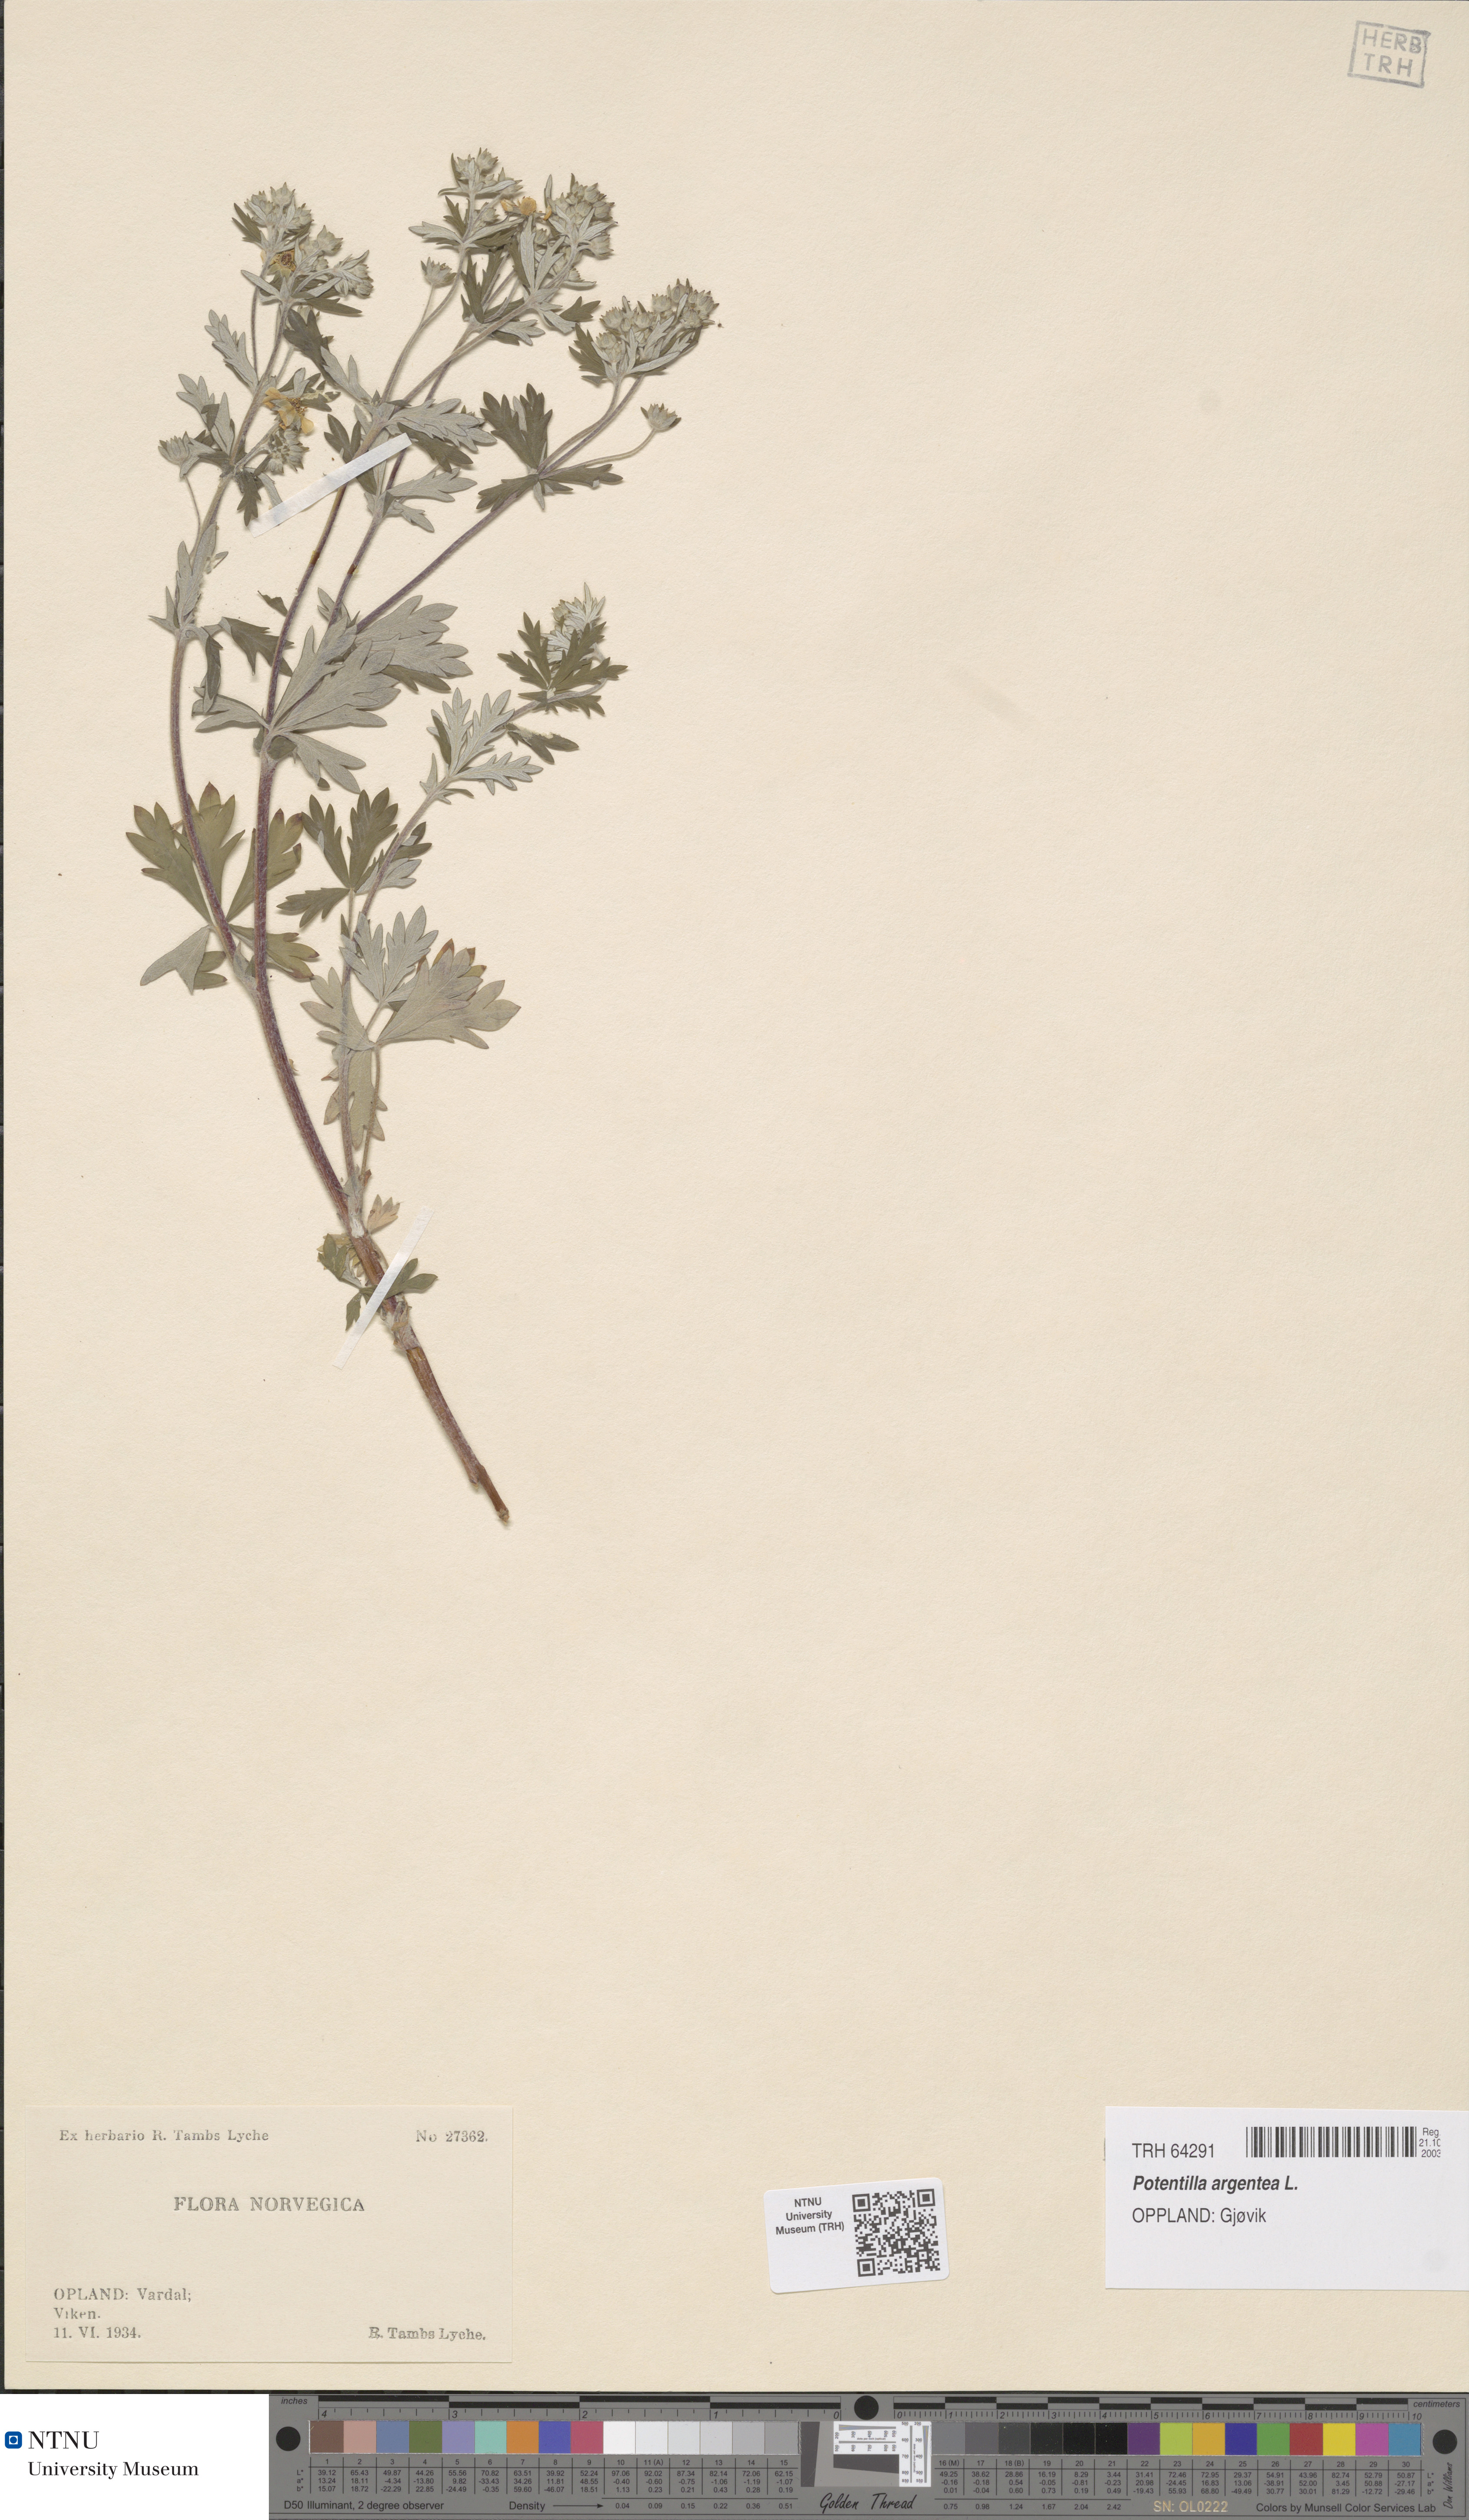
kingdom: Plantae
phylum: Tracheophyta
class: Magnoliopsida
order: Rosales
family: Rosaceae
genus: Potentilla
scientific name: Potentilla argentea
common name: Hoary cinquefoil
